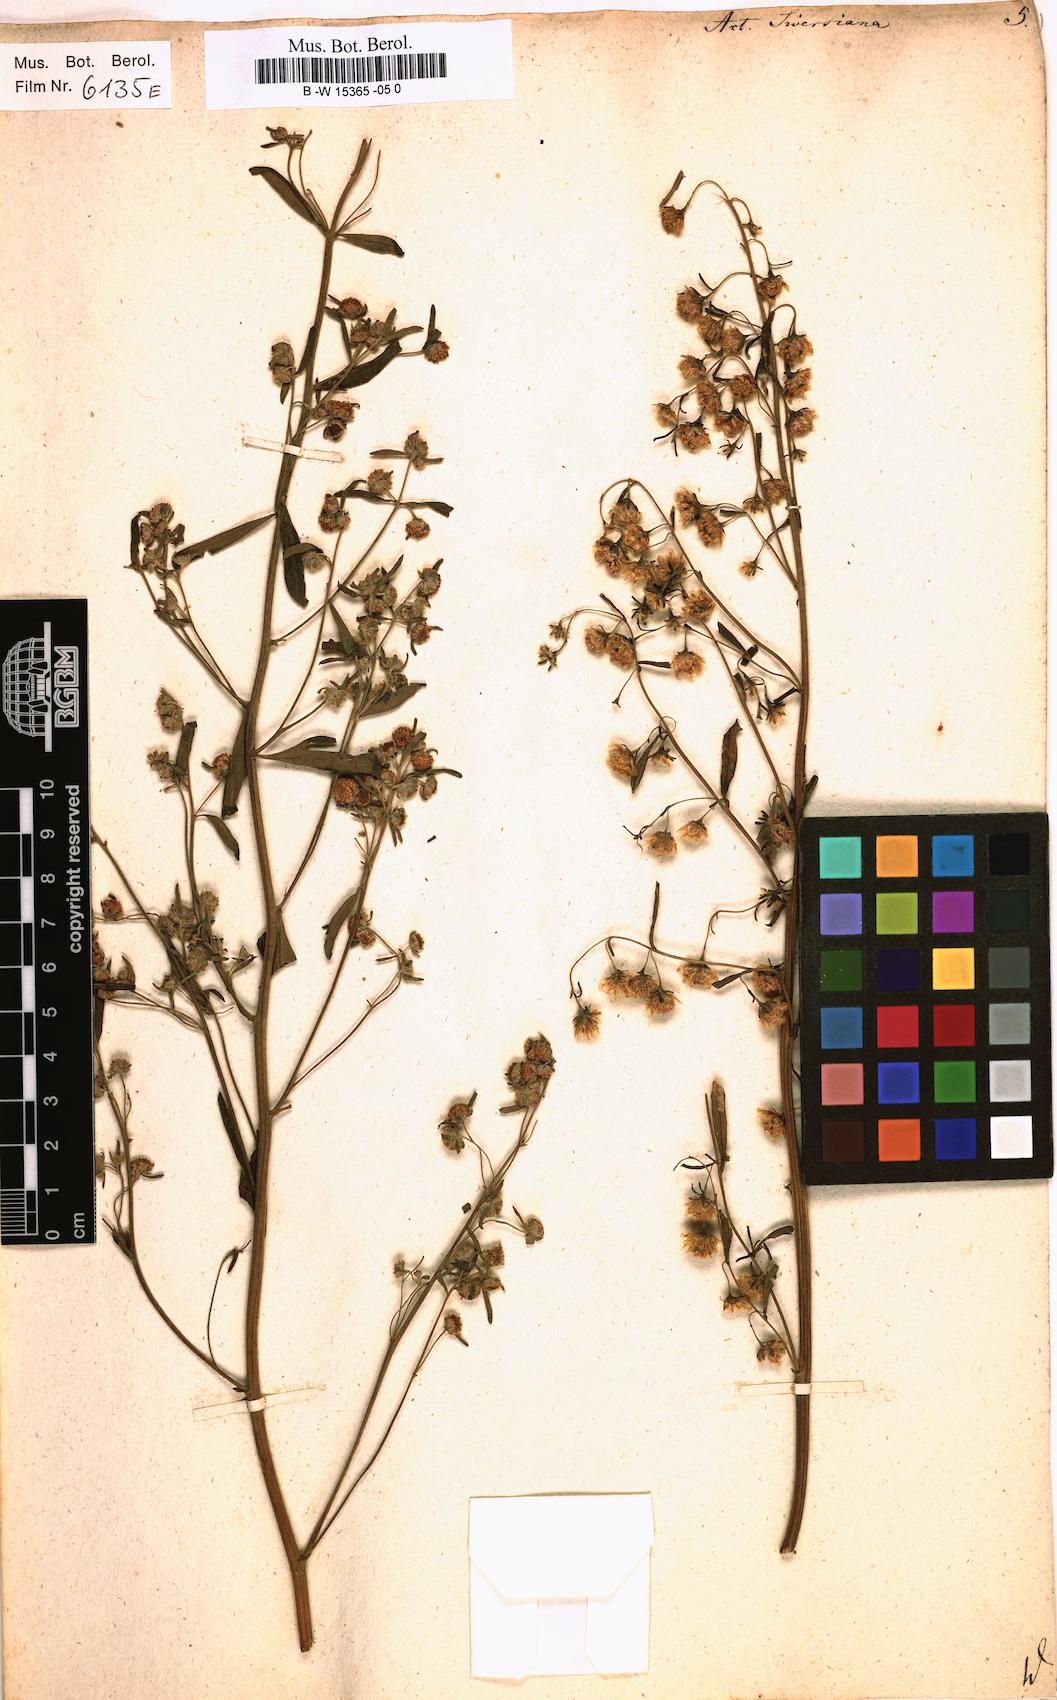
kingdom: Plantae
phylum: Tracheophyta
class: Magnoliopsida
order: Asterales
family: Asteraceae
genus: Artemisia
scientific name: Artemisia sieversiana
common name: Sieversian wormwood
